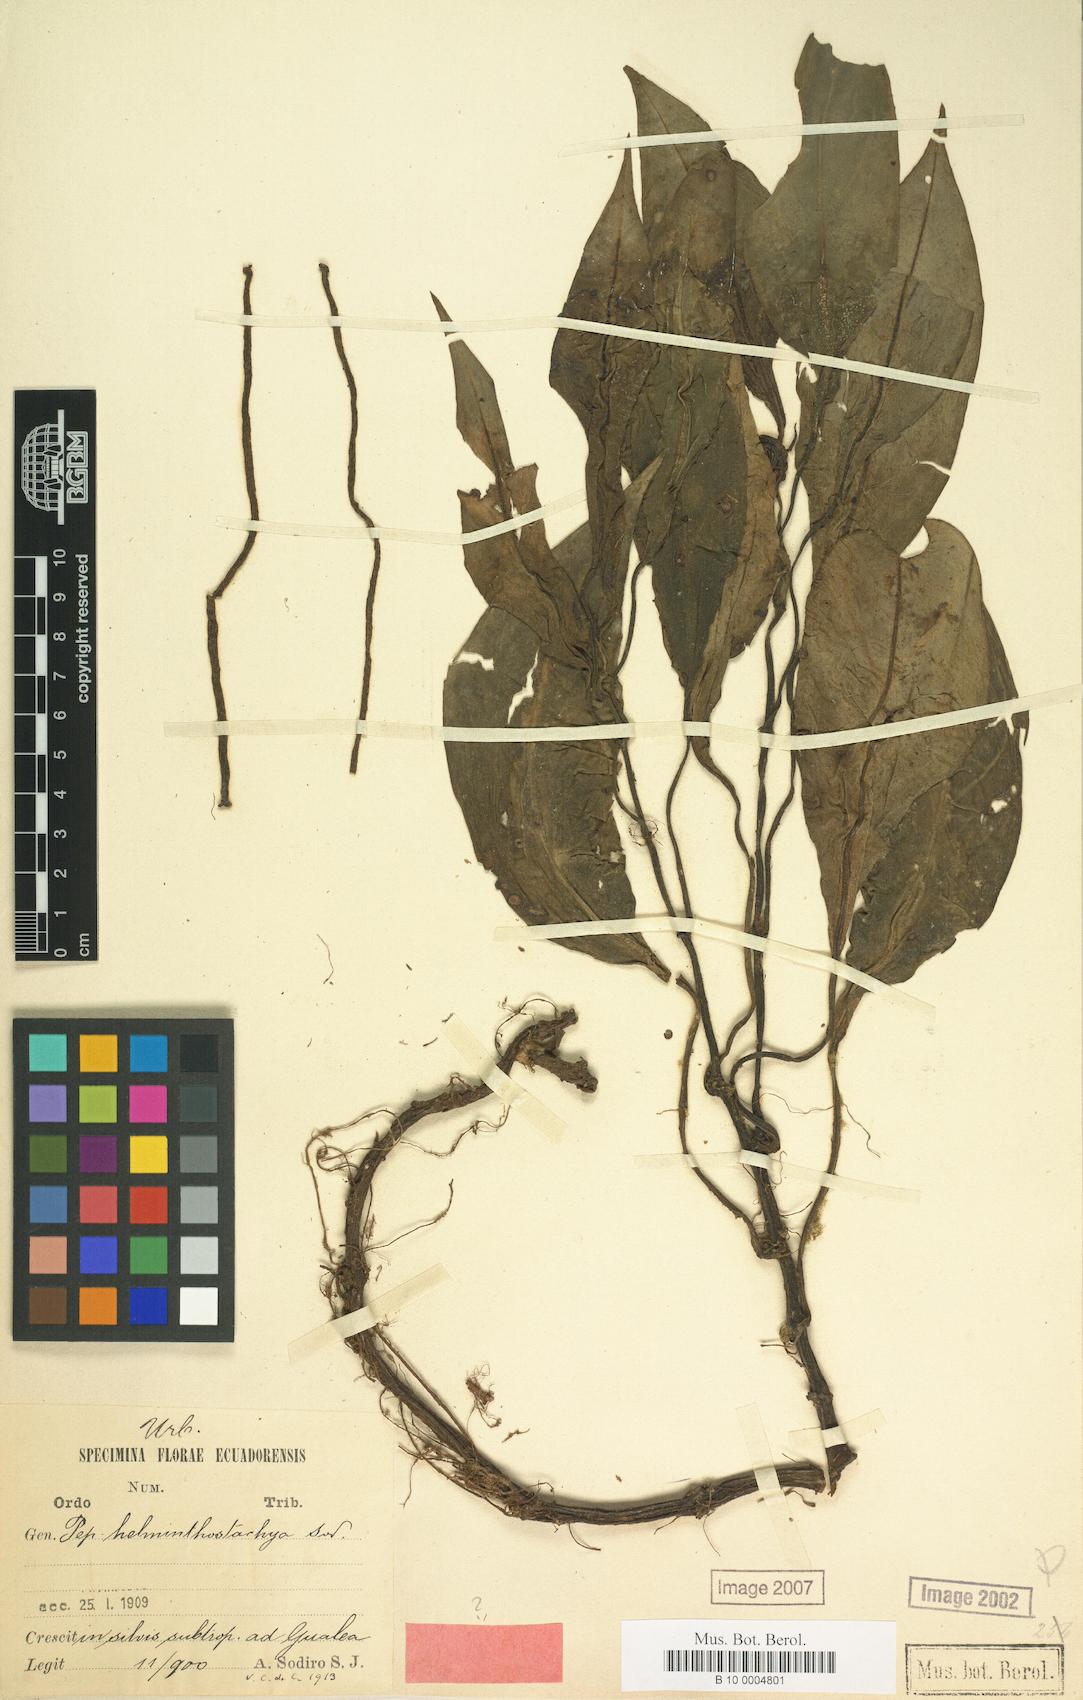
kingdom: Plantae
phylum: Tracheophyta
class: Magnoliopsida
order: Piperales
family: Piperaceae
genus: Peperomia
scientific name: Peperomia striata
